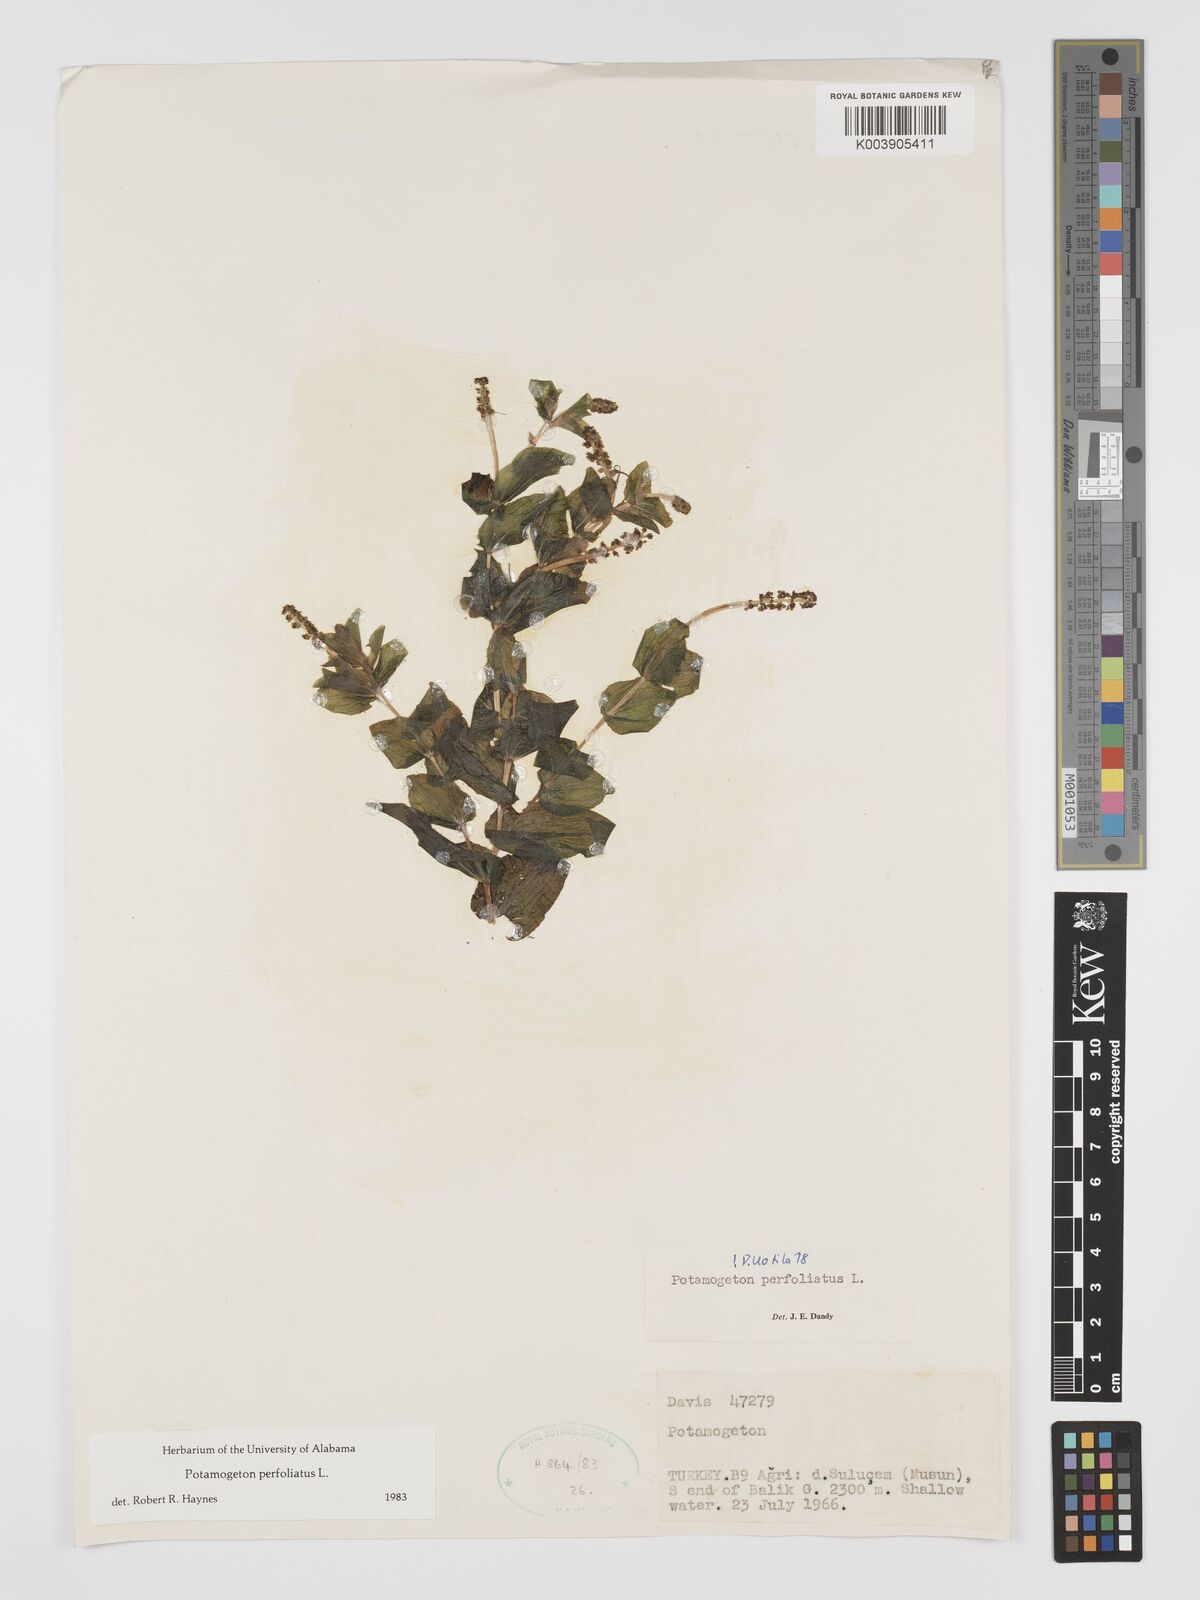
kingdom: Plantae
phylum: Tracheophyta
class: Liliopsida
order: Alismatales
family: Potamogetonaceae
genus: Potamogeton
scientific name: Potamogeton perfoliatus
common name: Perfoliate pondweed
